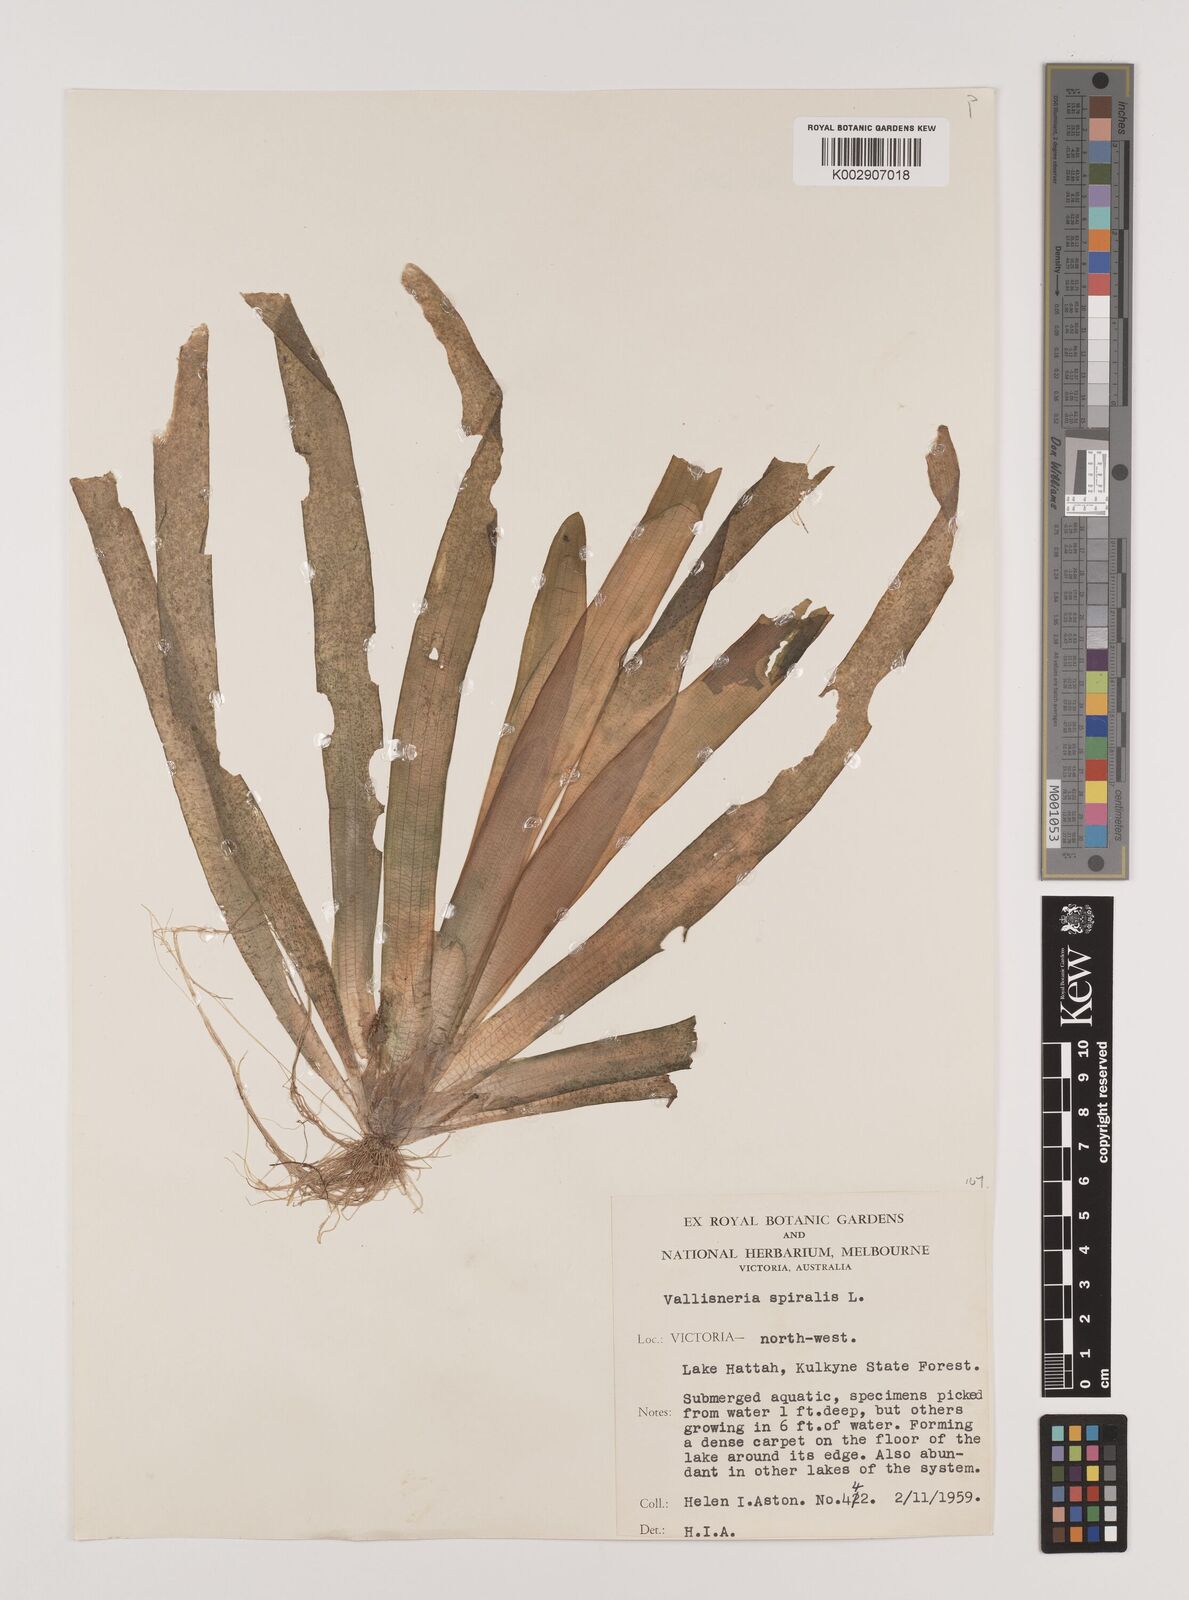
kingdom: Plantae
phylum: Tracheophyta
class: Liliopsida
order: Alismatales
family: Hydrocharitaceae
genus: Vallisneria
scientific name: Vallisneria spiralis
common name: Tapegrass
